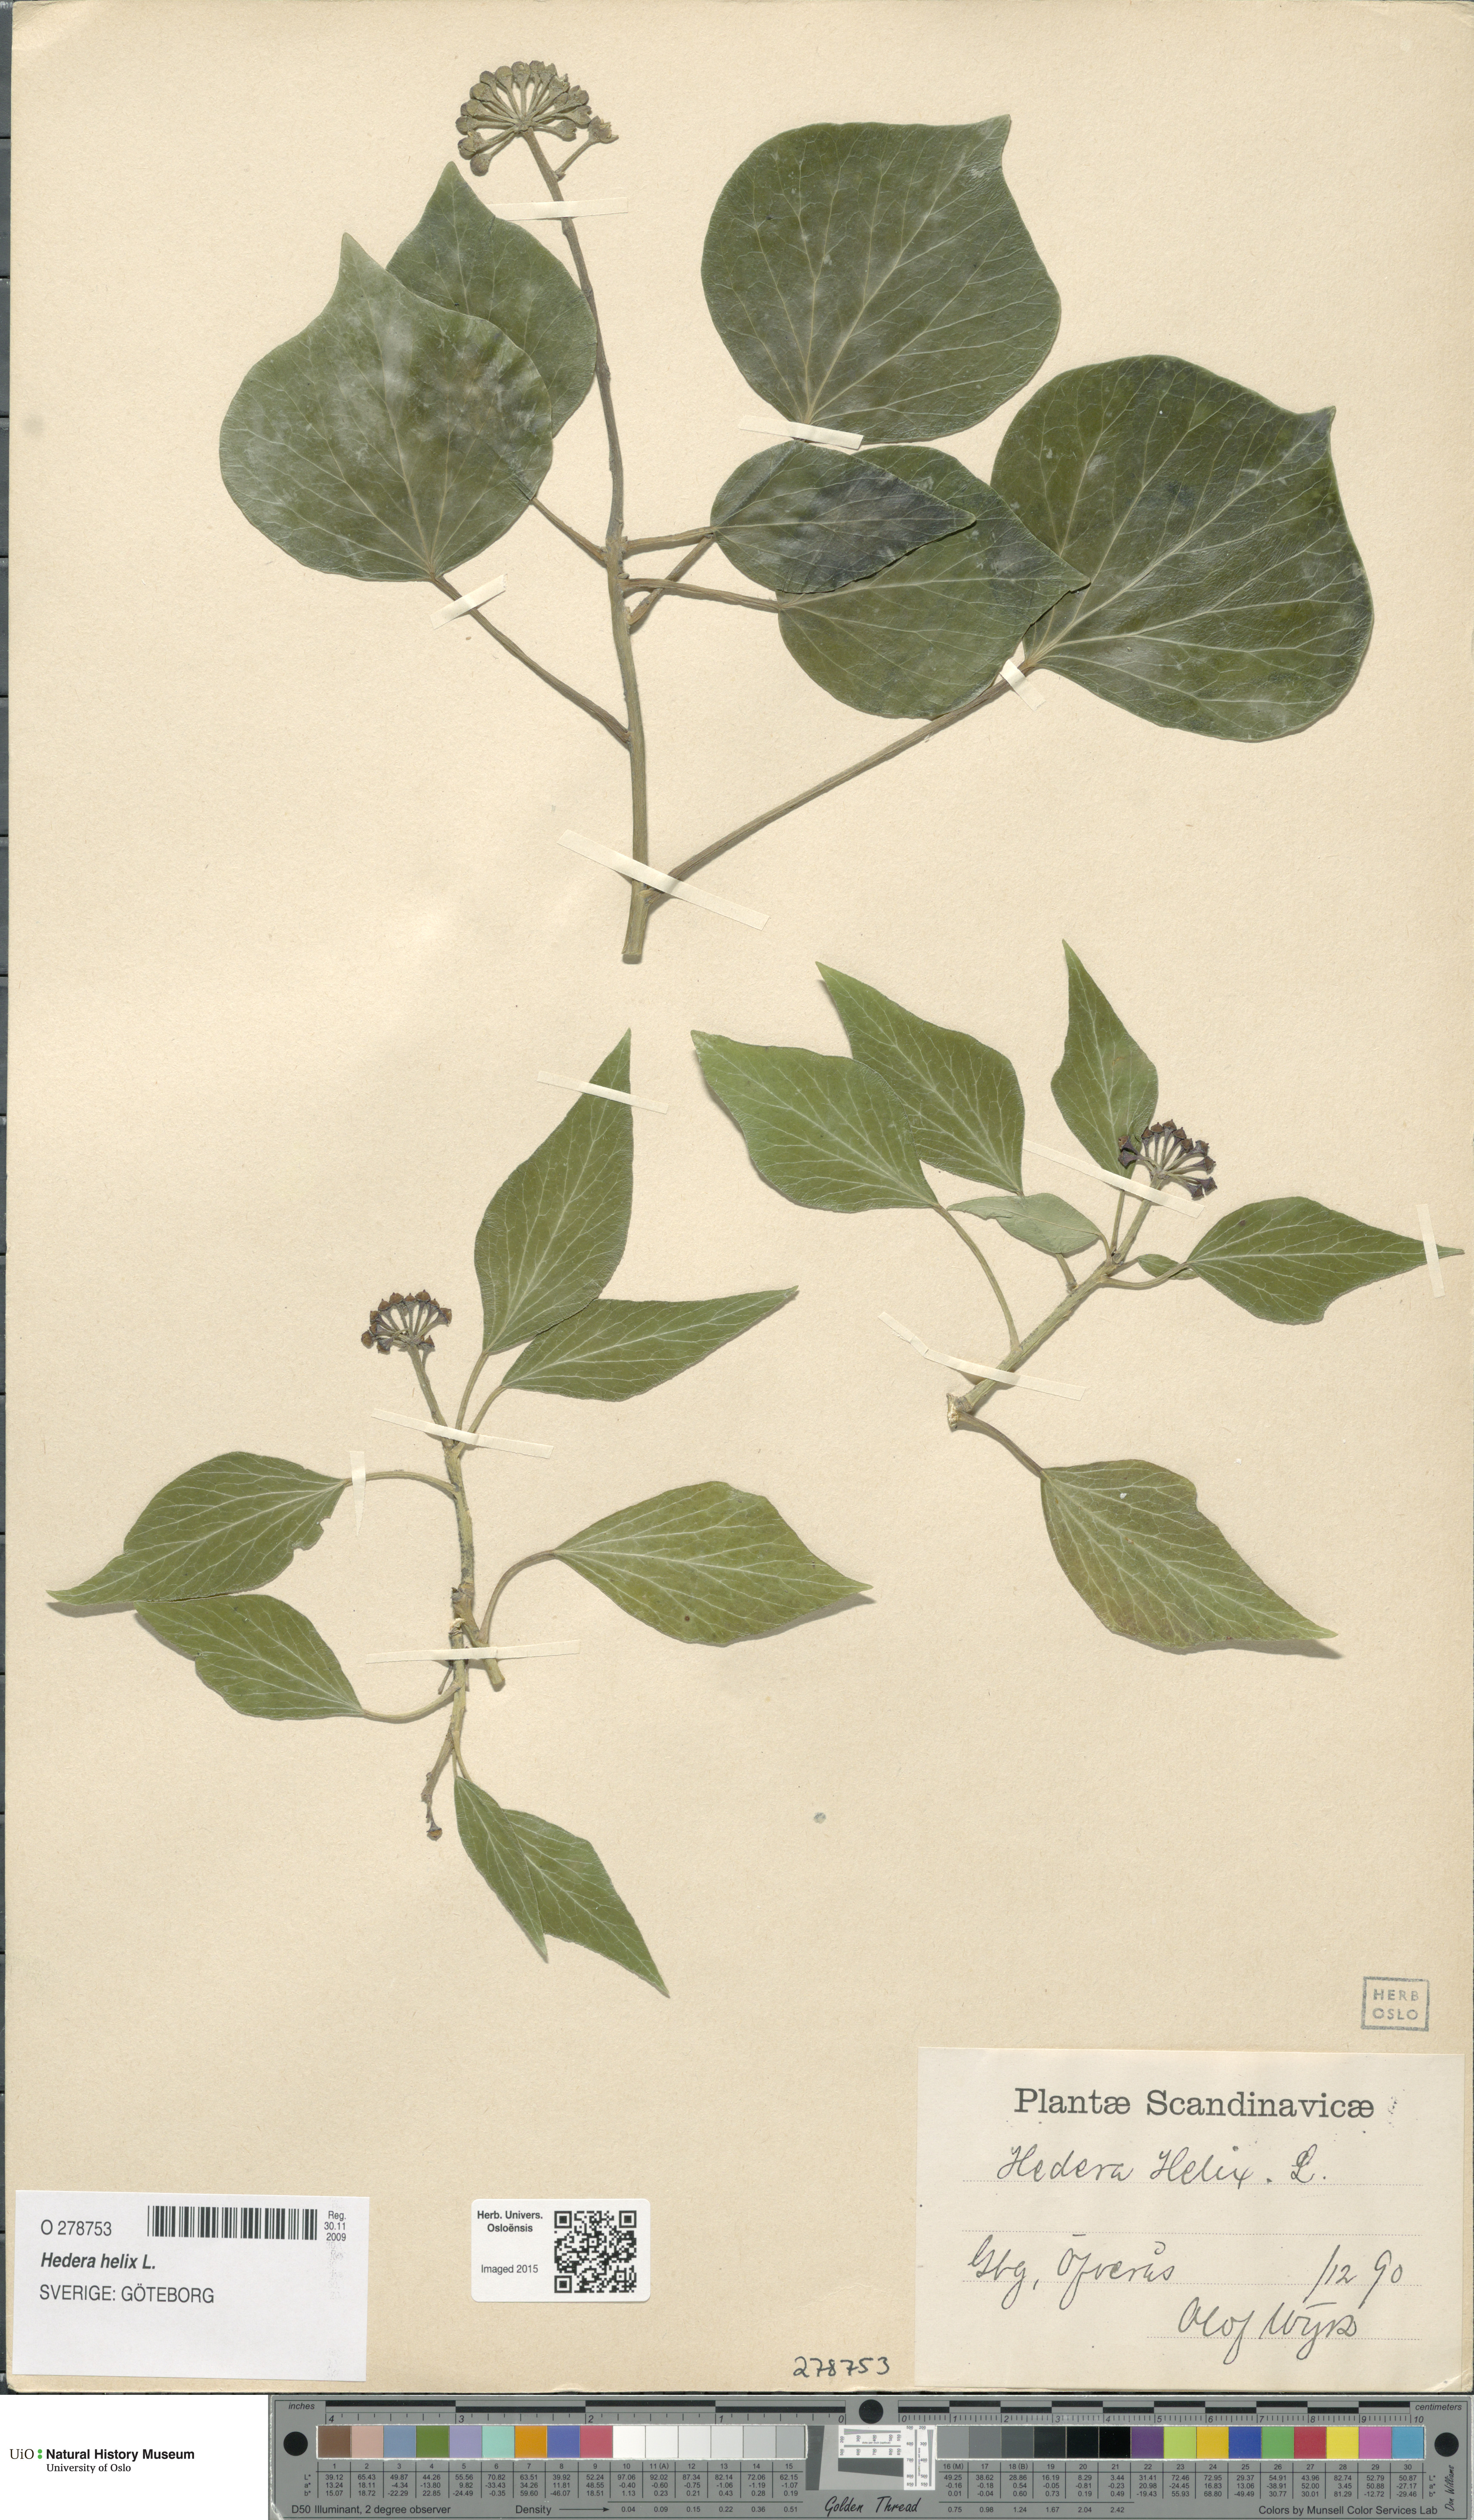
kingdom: Plantae
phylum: Tracheophyta
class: Magnoliopsida
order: Apiales
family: Araliaceae
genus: Hedera
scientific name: Hedera helix
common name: Ivy
